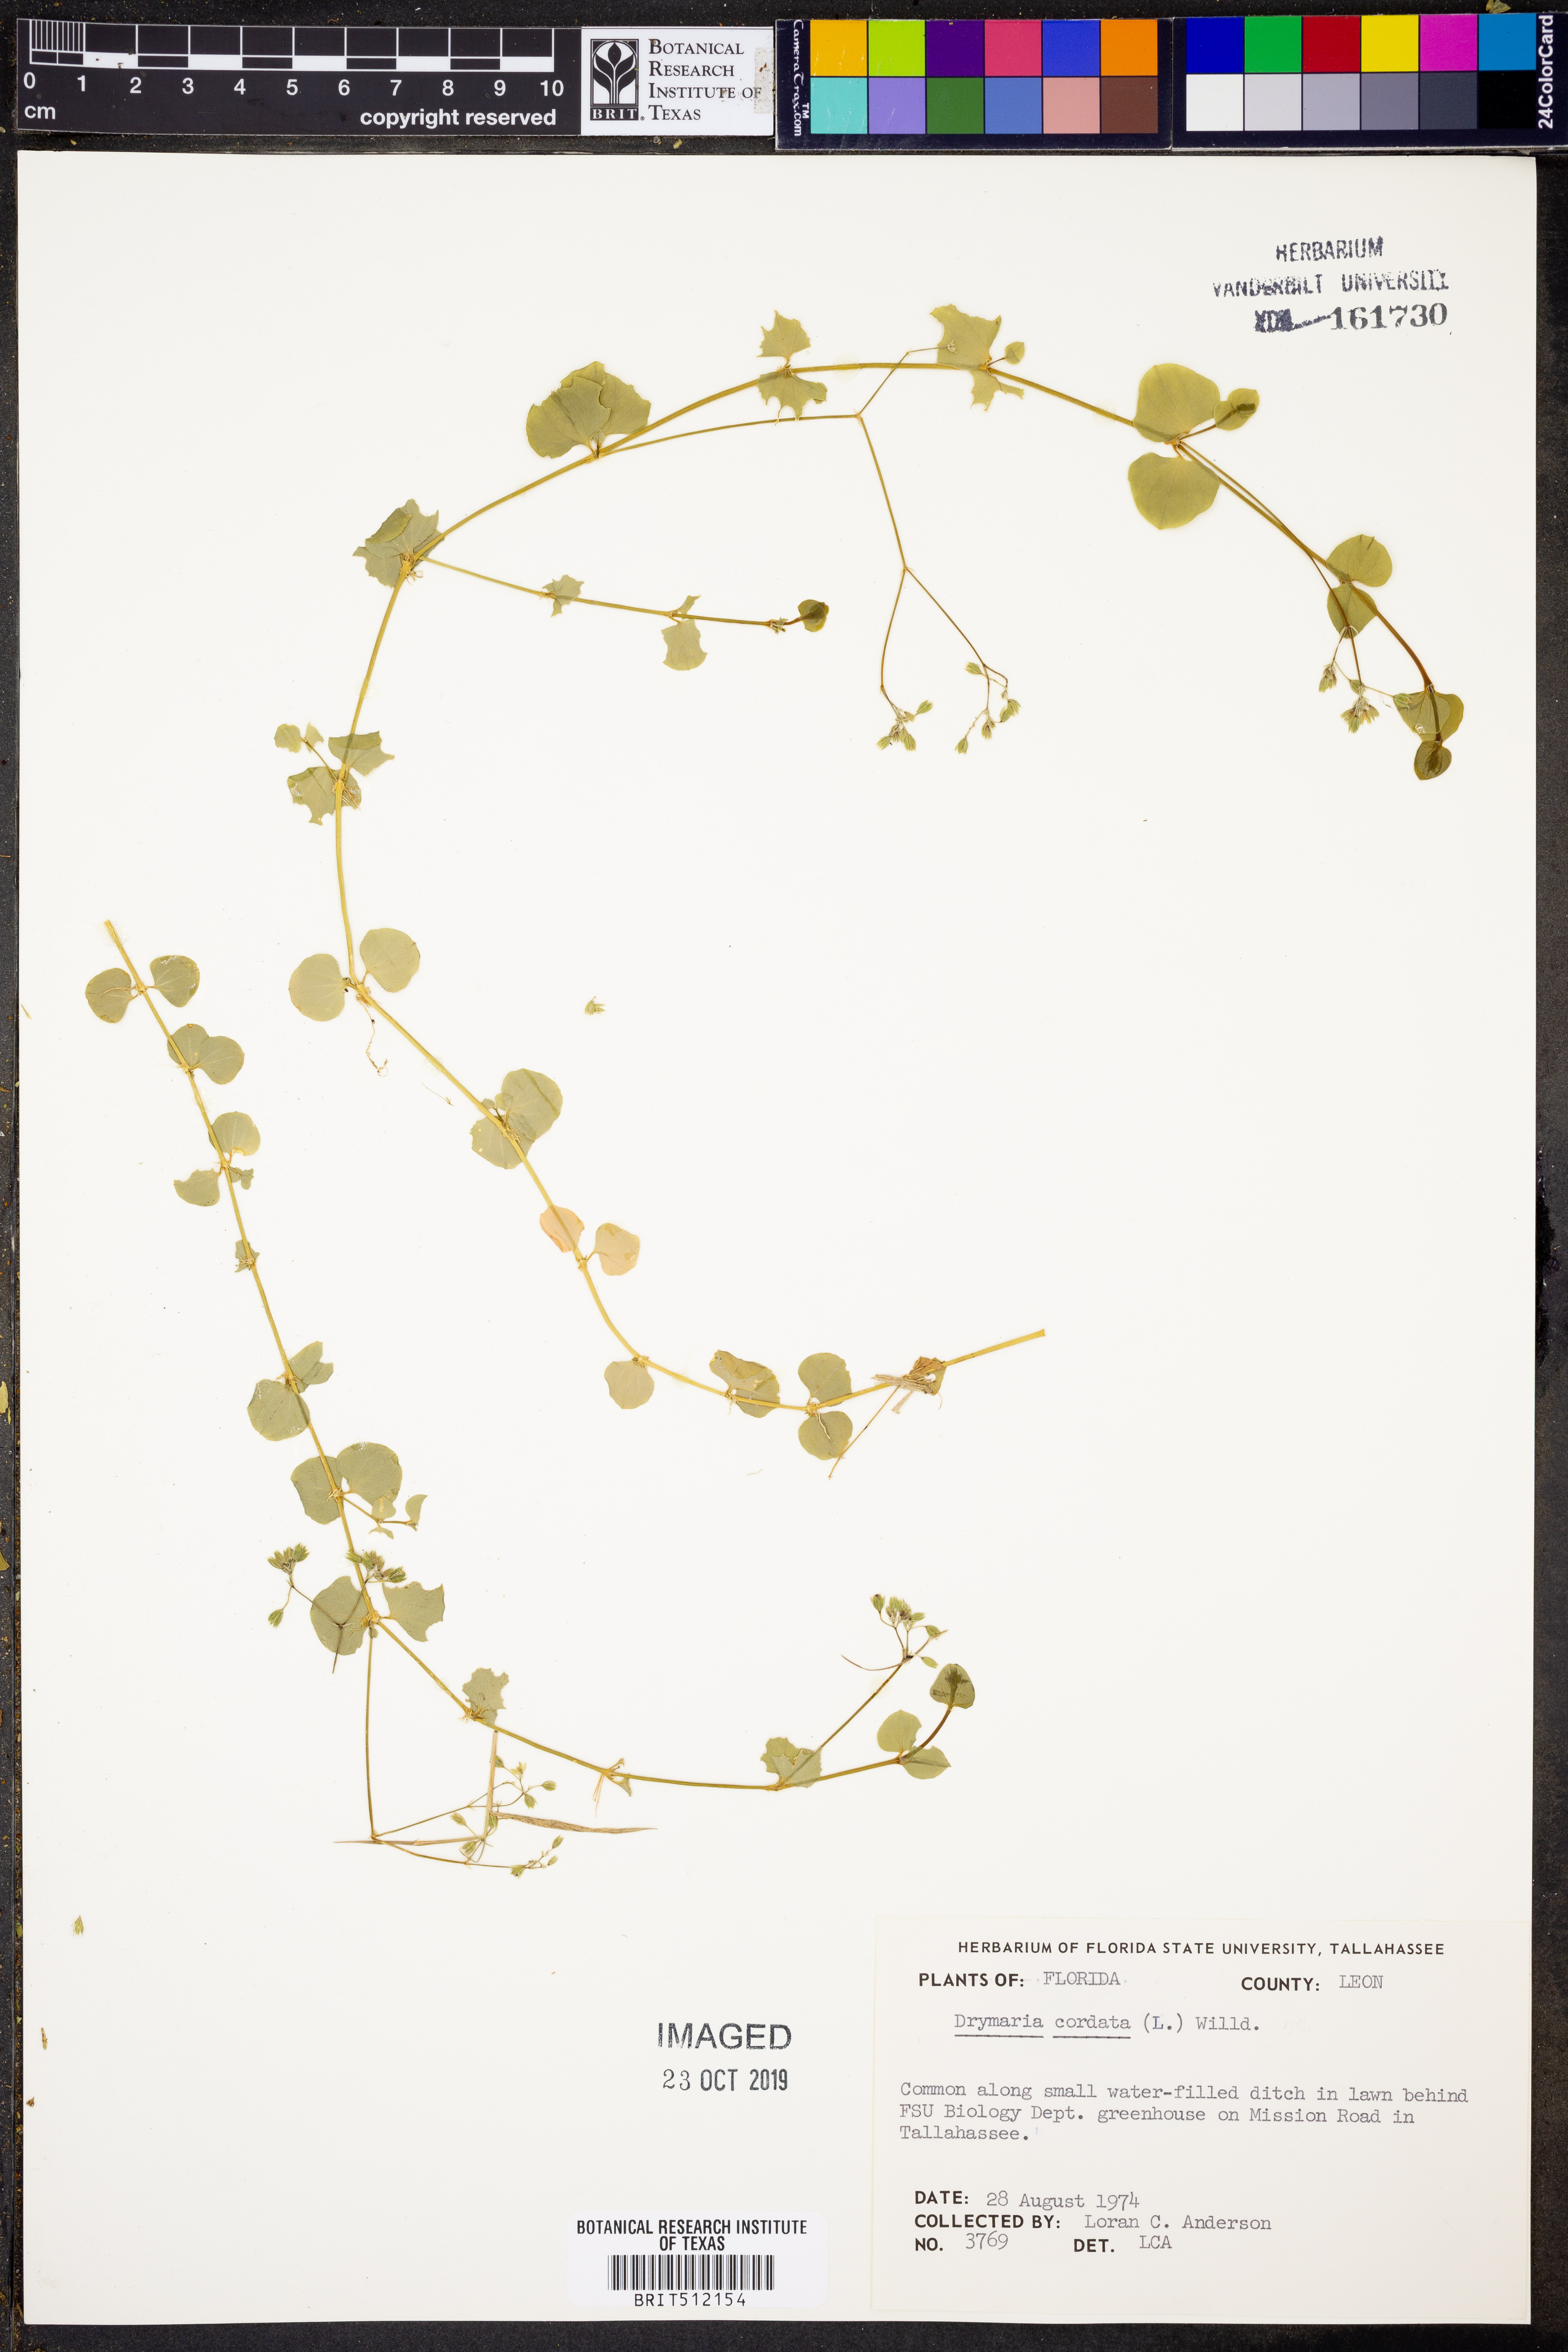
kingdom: Plantae
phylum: Tracheophyta
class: Magnoliopsida
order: Caryophyllales
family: Caryophyllaceae
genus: Drymaria
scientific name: Drymaria cordata
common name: Whitesnow
